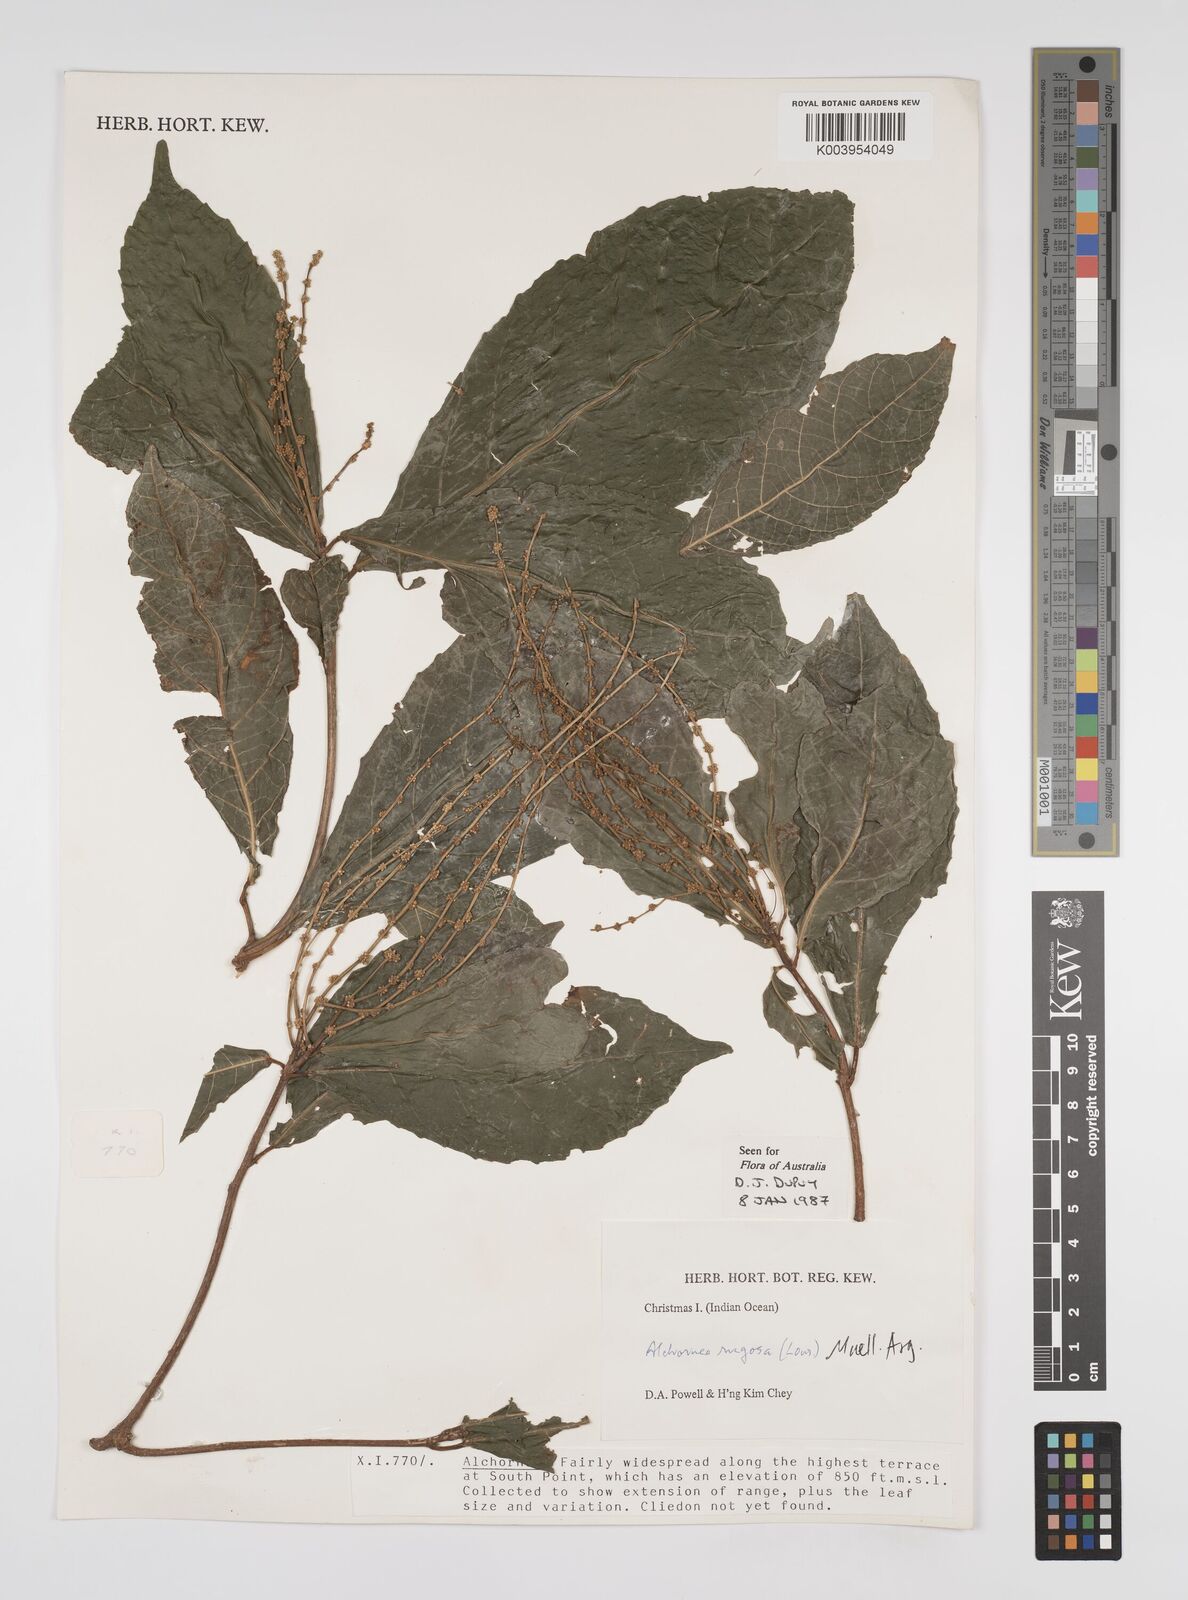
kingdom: Plantae
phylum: Tracheophyta
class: Magnoliopsida
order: Malpighiales
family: Euphorbiaceae
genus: Alchornea
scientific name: Alchornea rugosa
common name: Alchorntree
